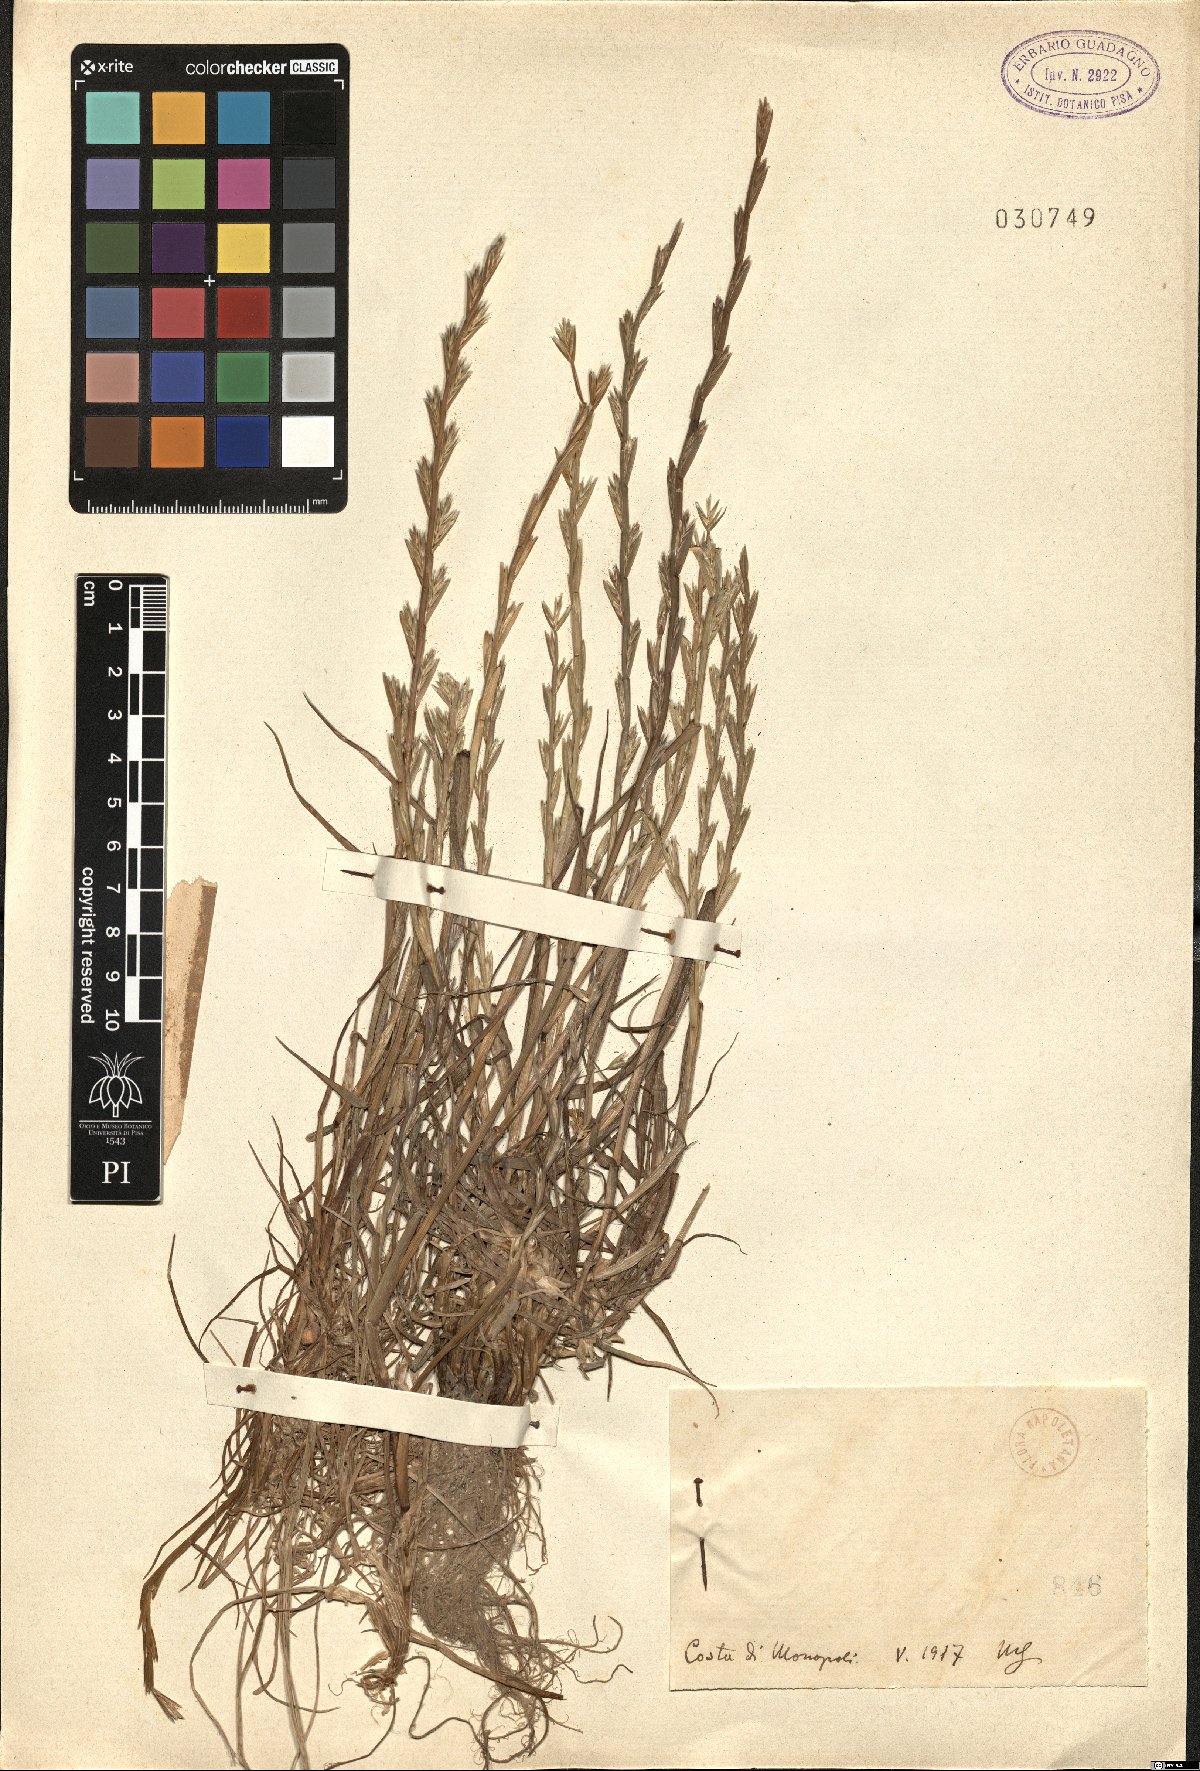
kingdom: Plantae
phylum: Tracheophyta
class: Liliopsida
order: Poales
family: Poaceae
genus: Lolium
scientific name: Lolium
